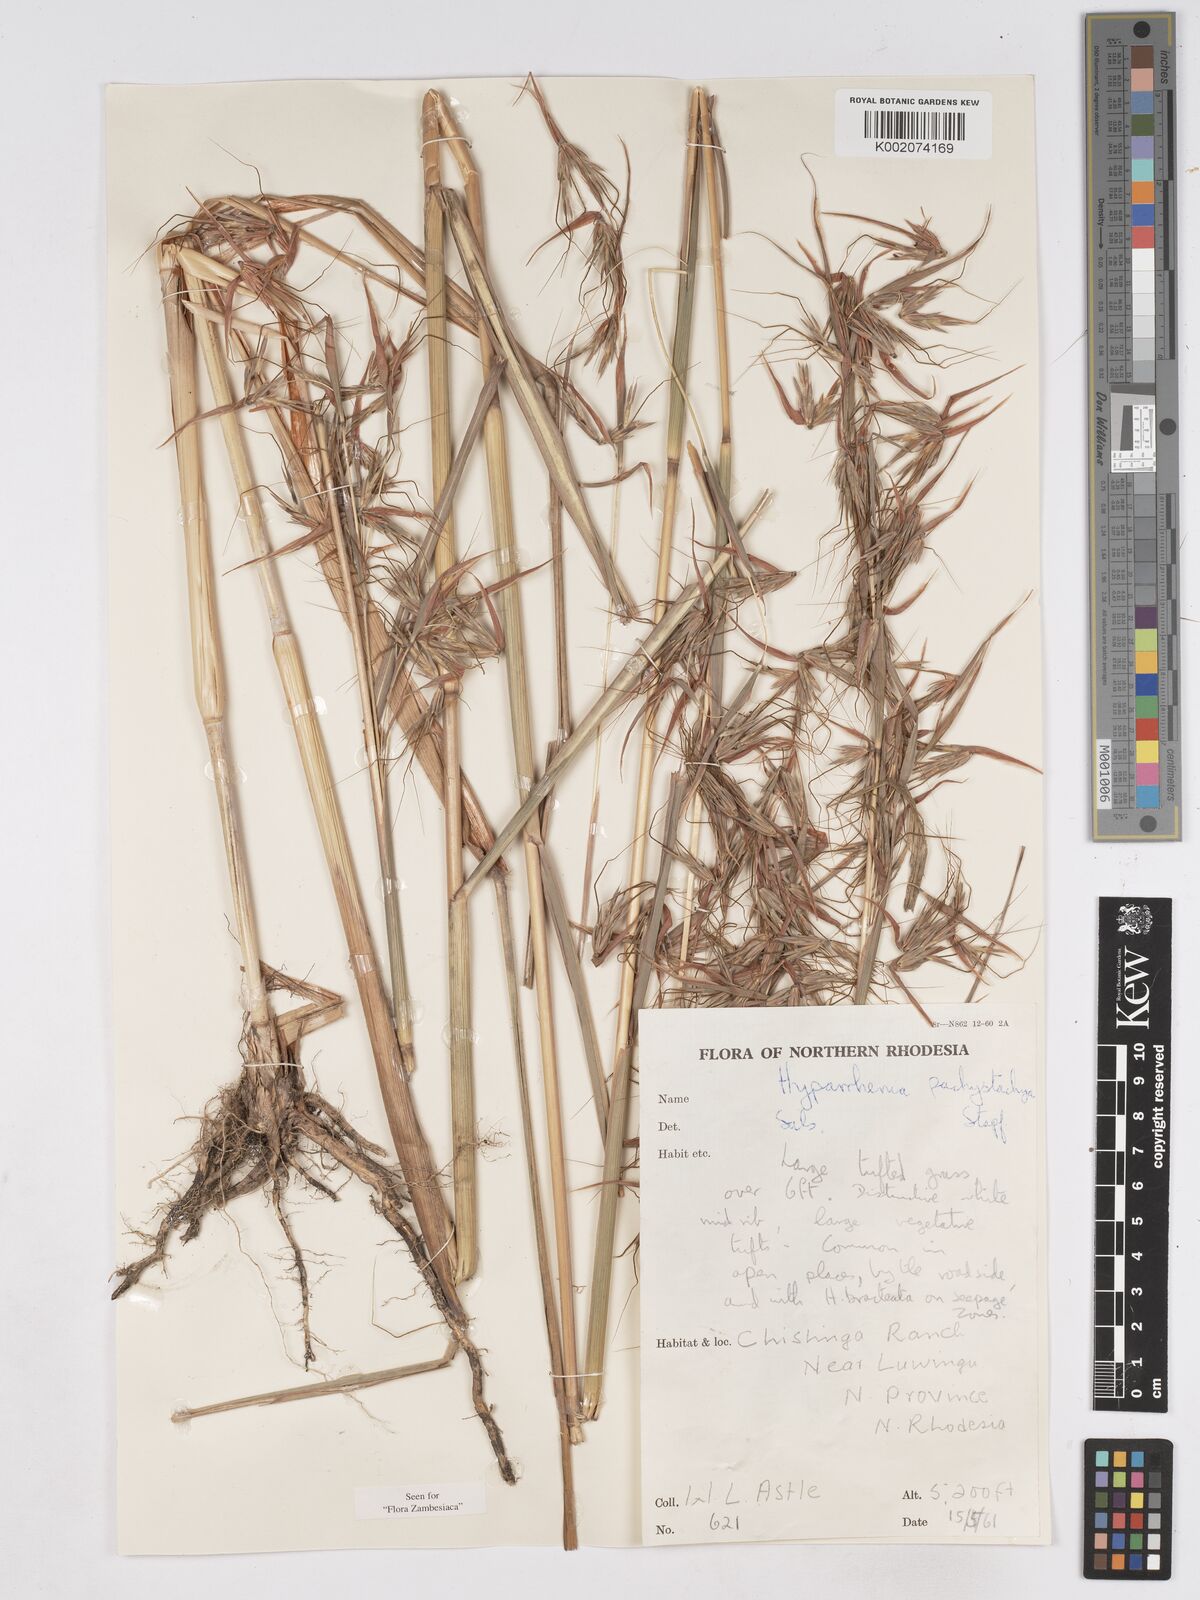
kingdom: Plantae
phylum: Tracheophyta
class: Liliopsida
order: Poales
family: Poaceae
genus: Hyparrhenia
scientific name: Hyparrhenia diplandra
